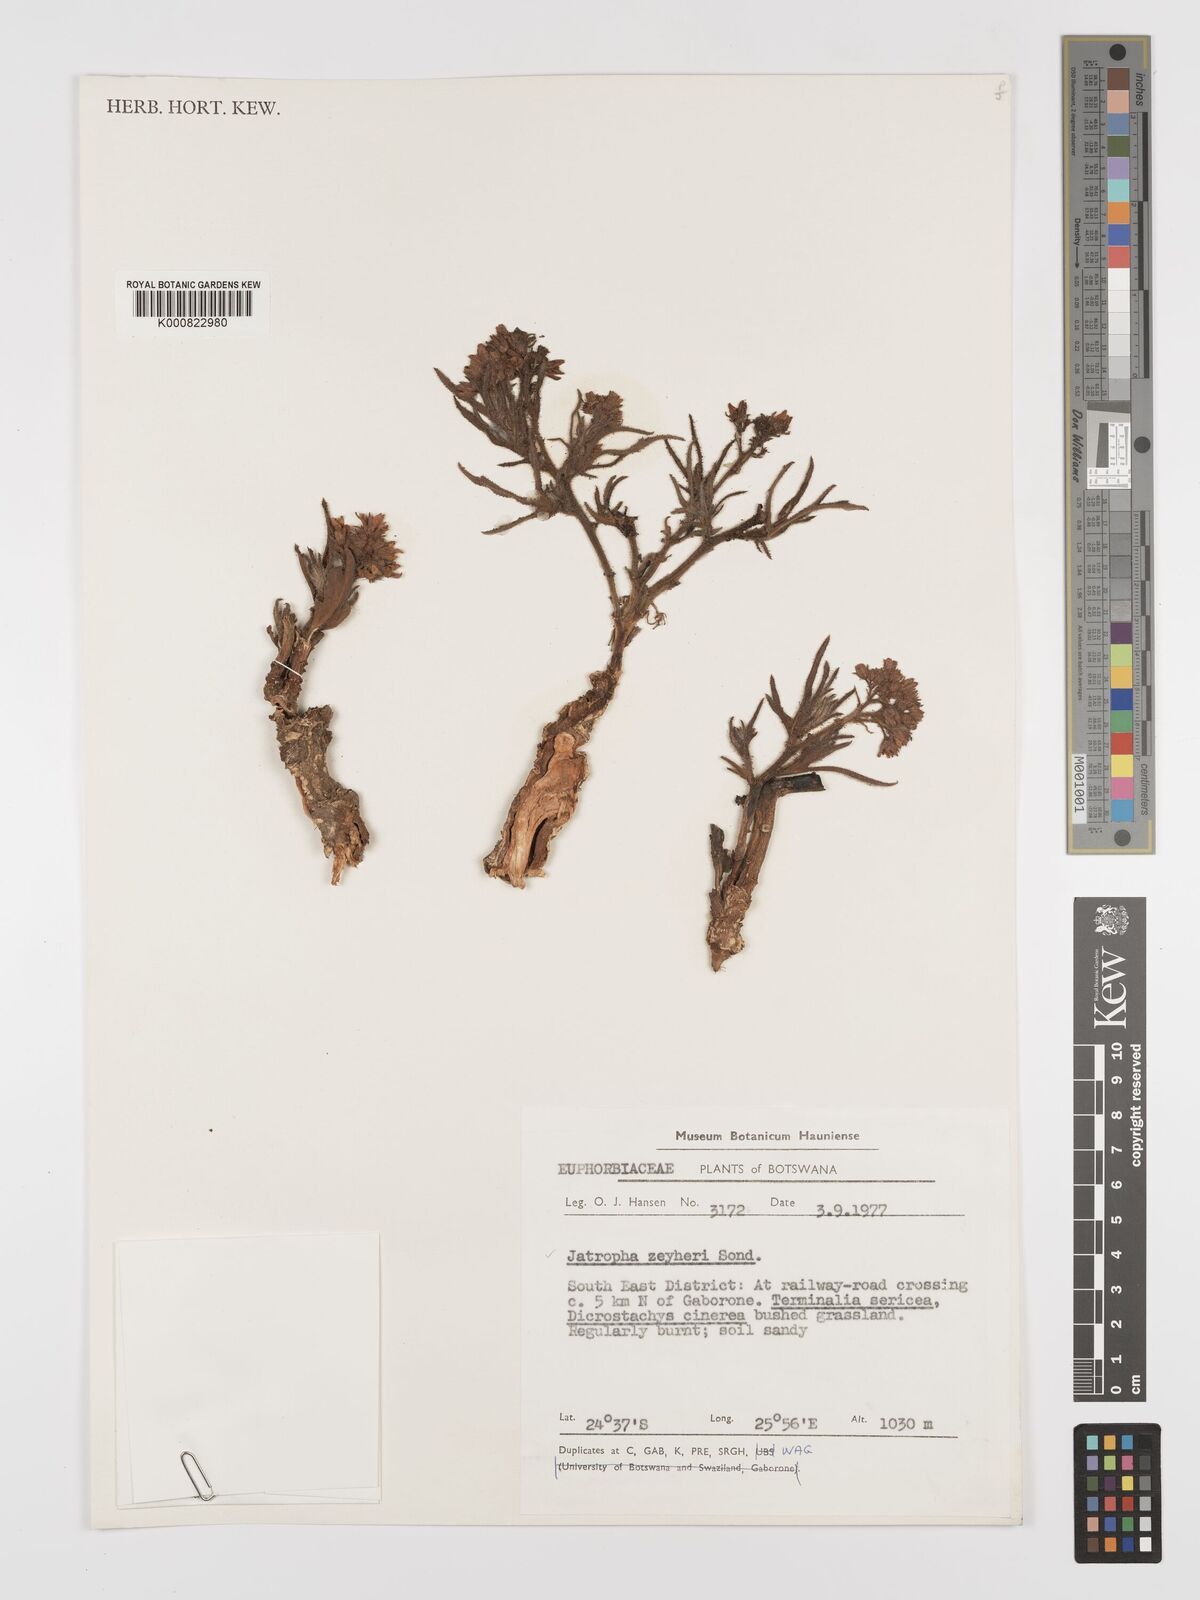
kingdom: Plantae
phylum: Tracheophyta
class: Magnoliopsida
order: Malpighiales
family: Euphorbiaceae
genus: Jatropha
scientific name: Jatropha zeyheri
